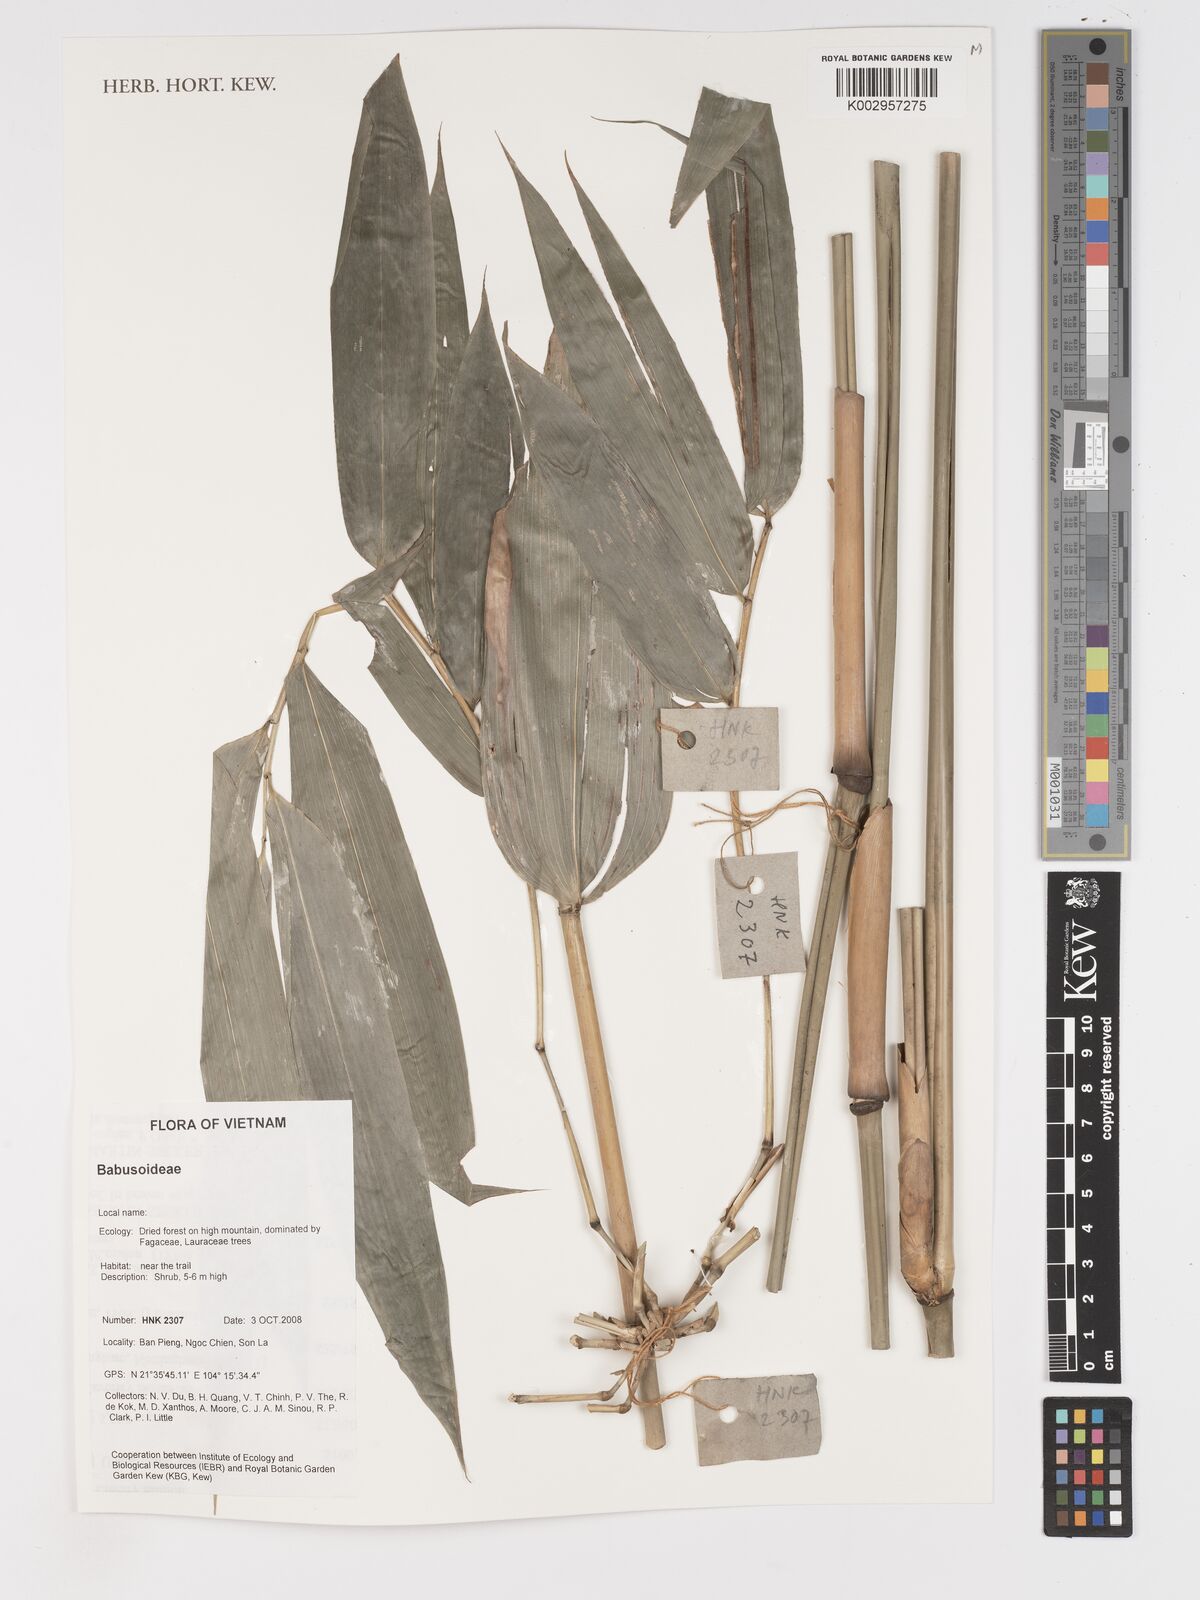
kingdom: Plantae
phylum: Tracheophyta
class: Liliopsida
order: Poales
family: Poaceae
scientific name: Poaceae
